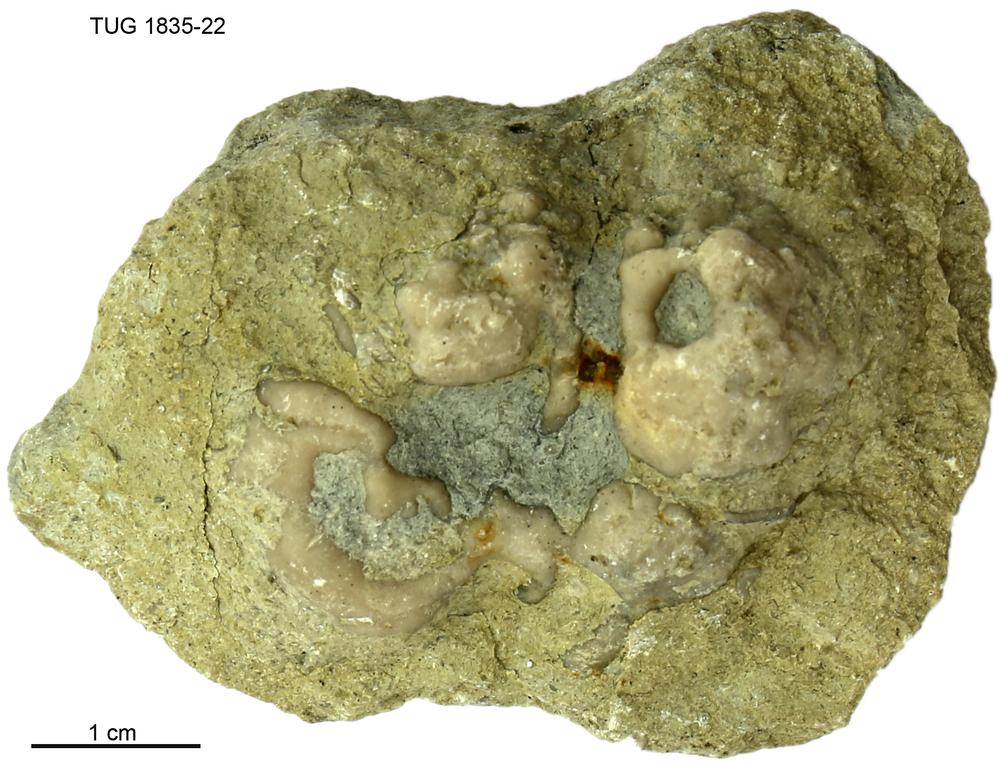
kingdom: Animalia
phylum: Porifera
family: Chaetetidae
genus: Solenopora
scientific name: Solenopora
